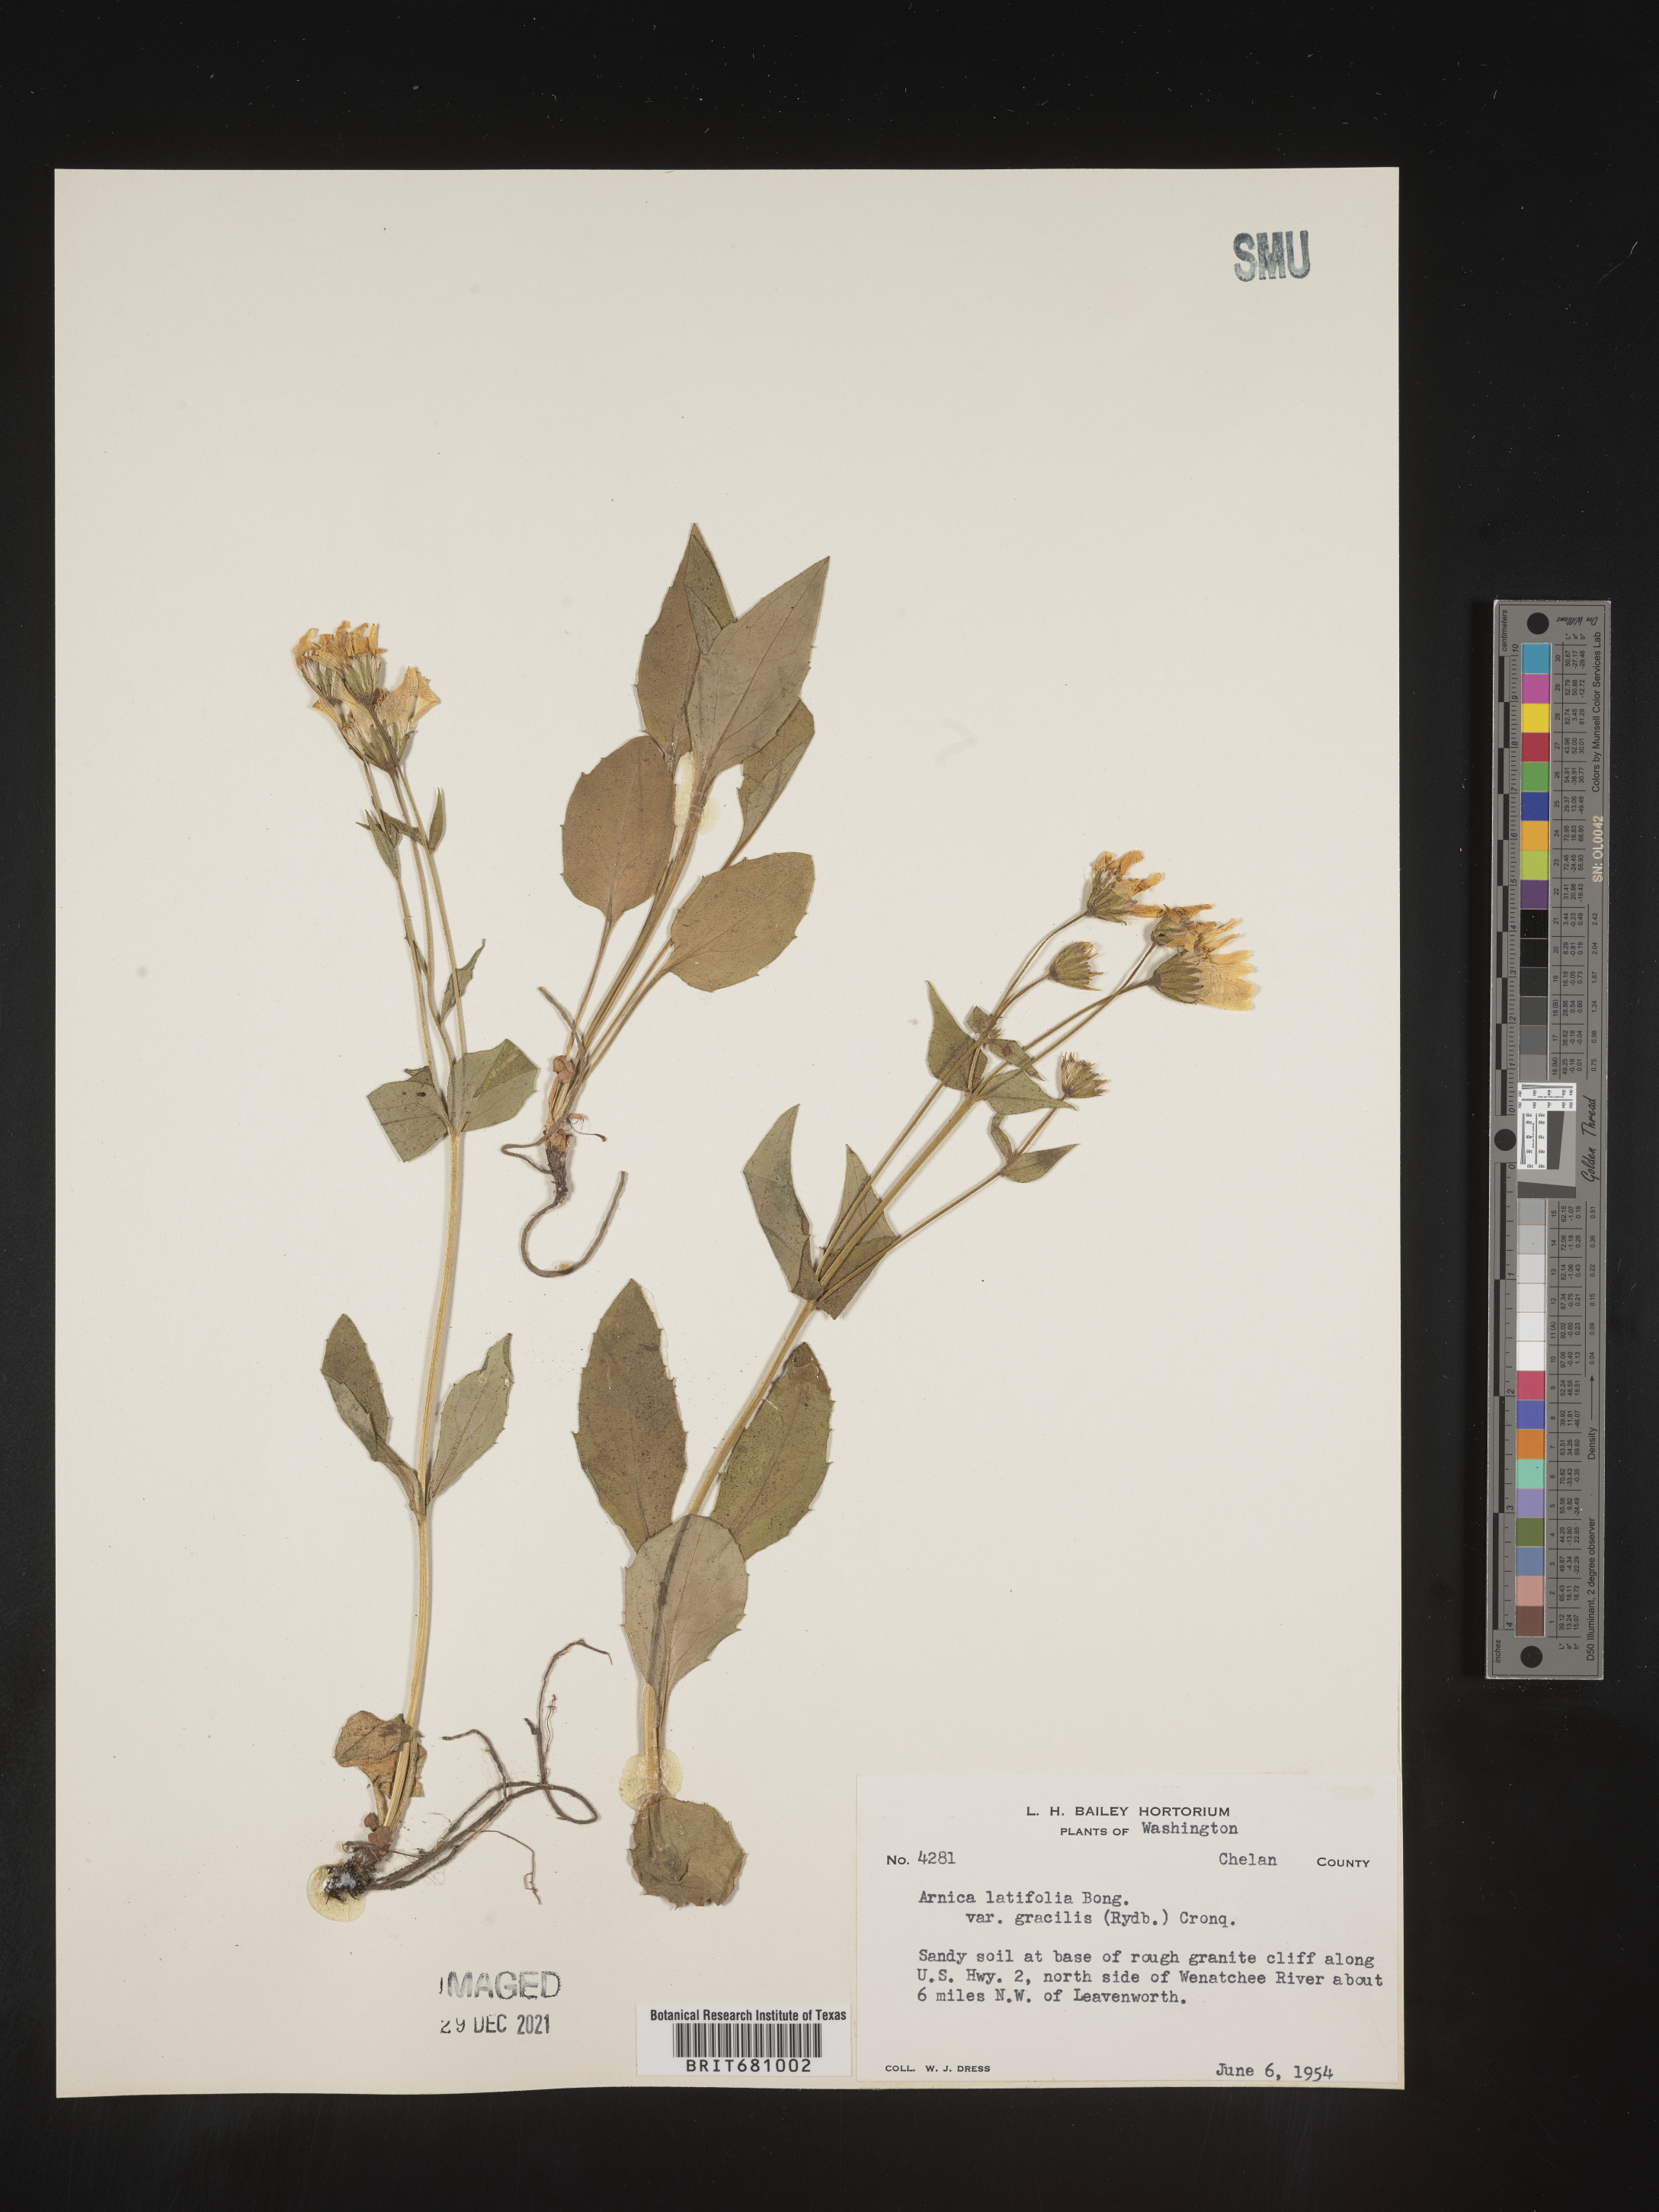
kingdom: Plantae
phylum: Tracheophyta
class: Magnoliopsida
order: Asterales
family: Asteraceae
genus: Arnica
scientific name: Arnica latifolia
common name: Arnica
